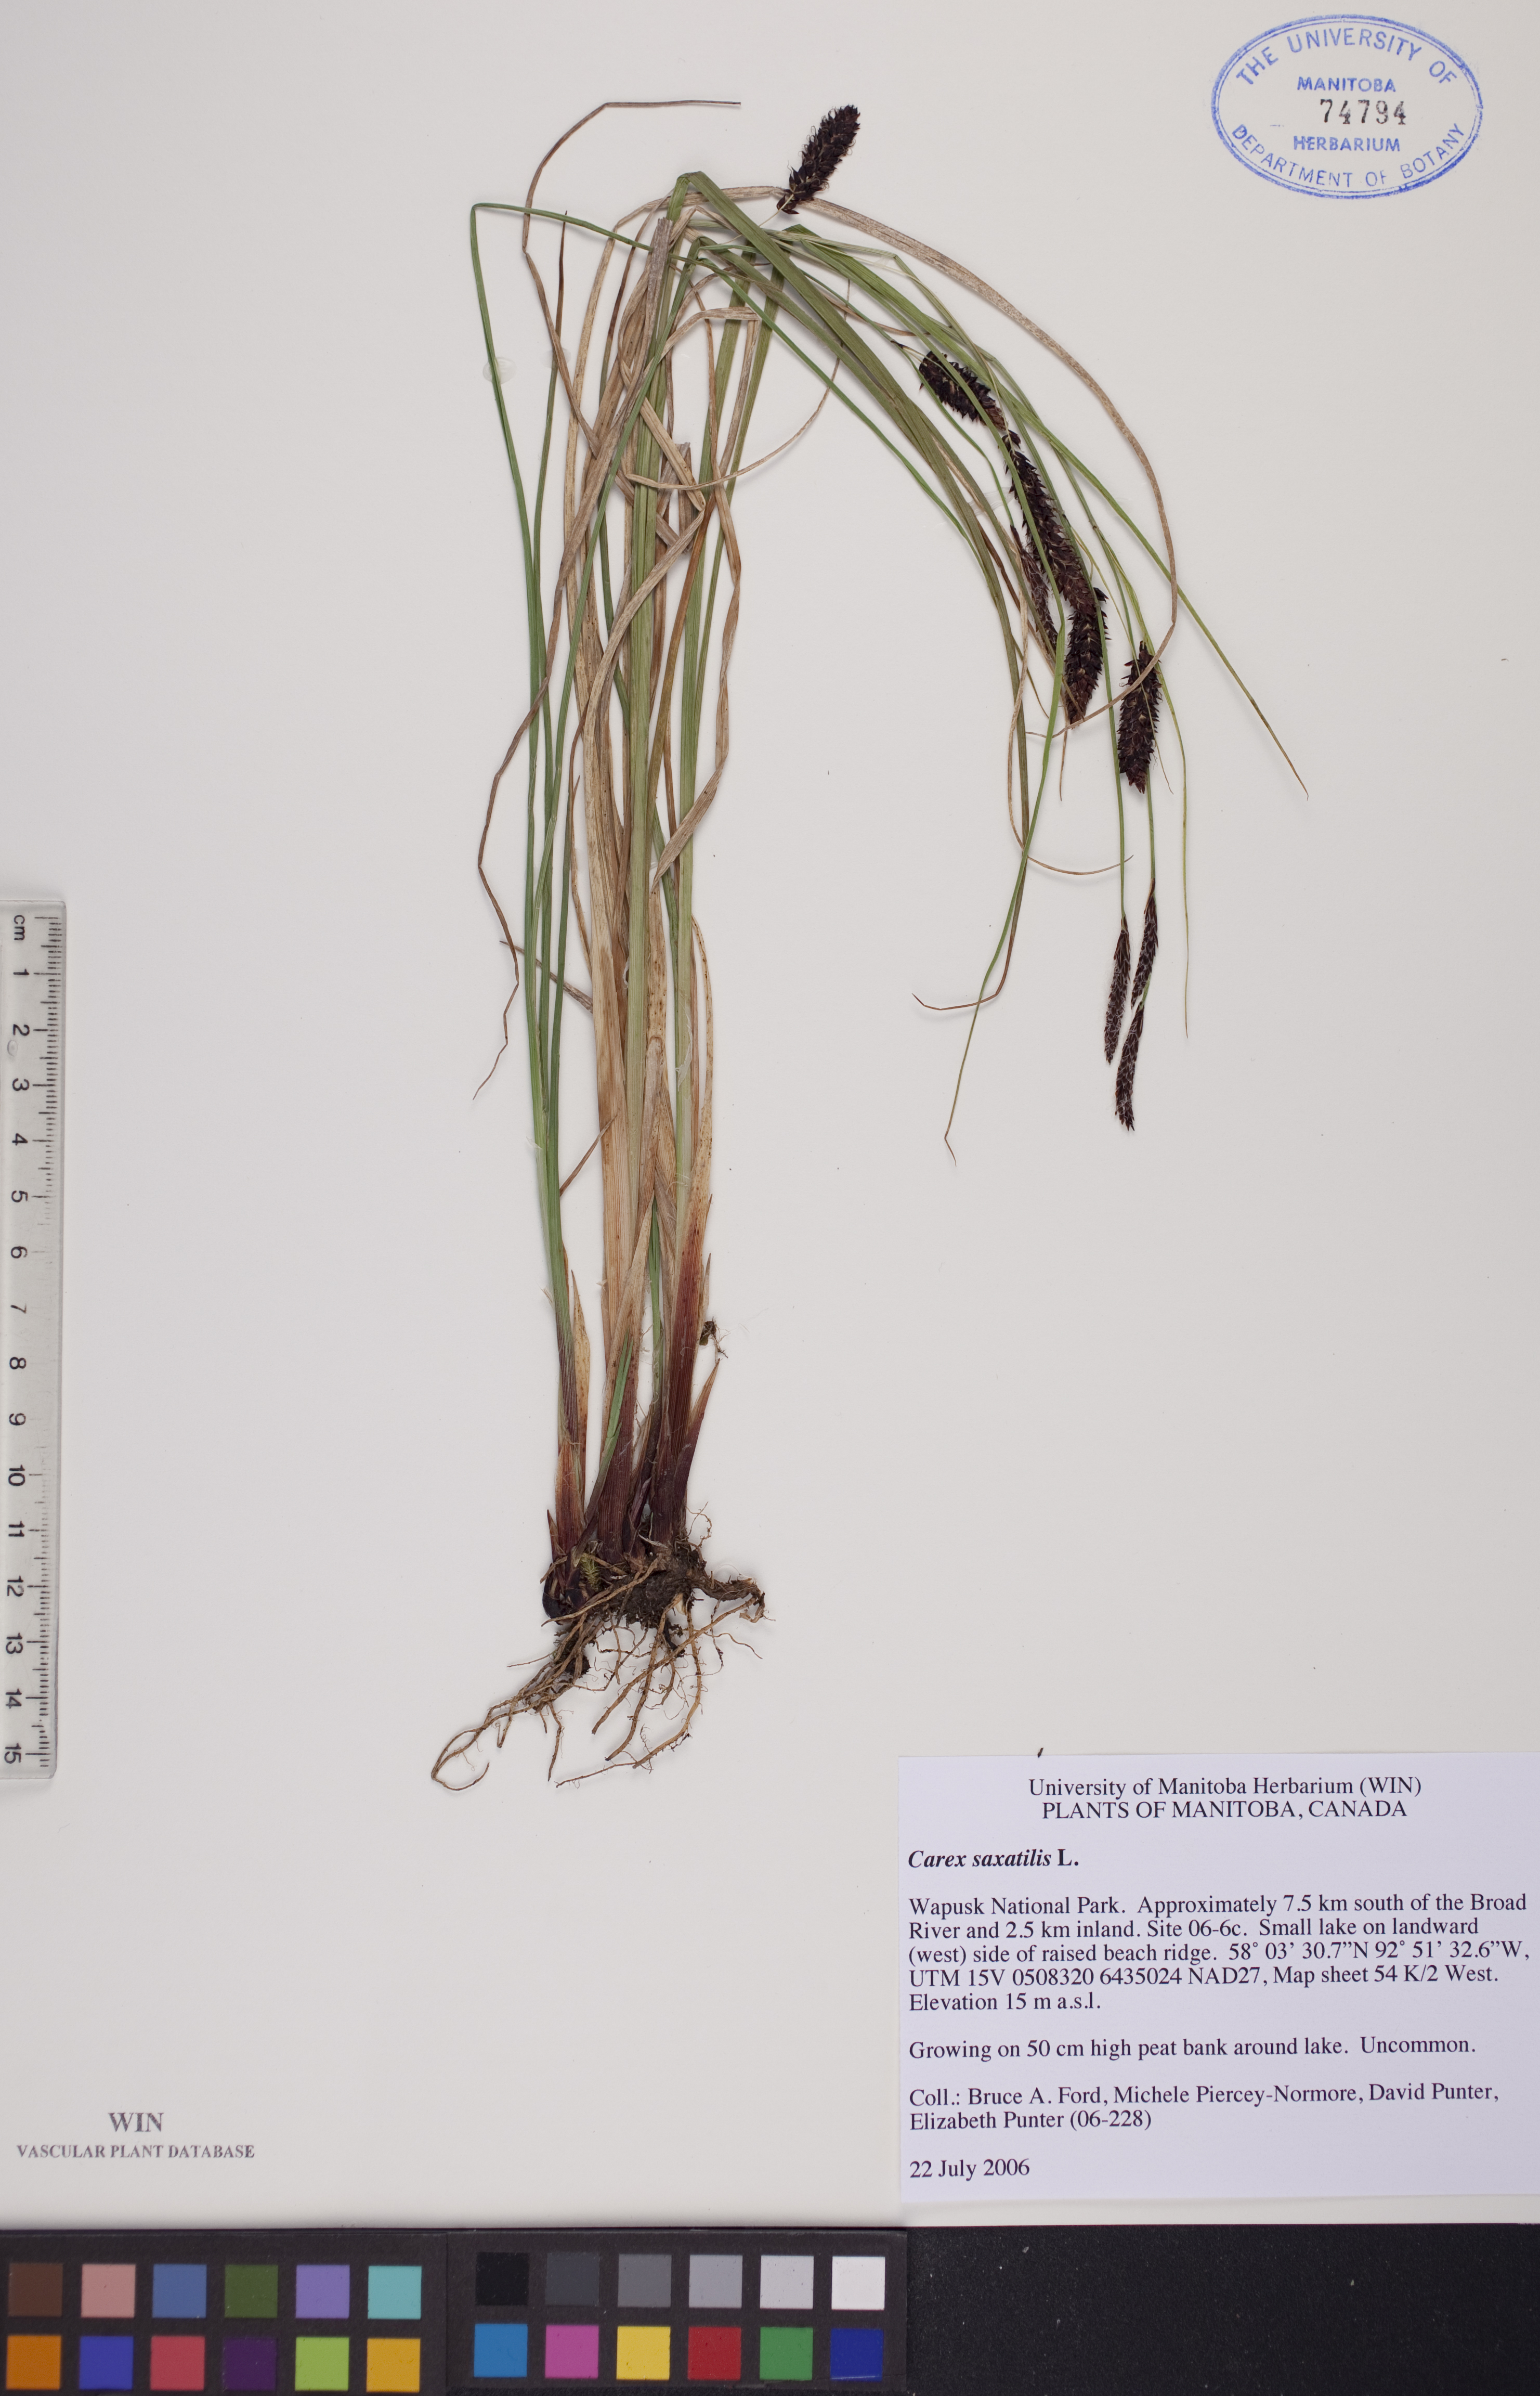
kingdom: Plantae
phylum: Tracheophyta
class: Liliopsida
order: Poales
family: Cyperaceae
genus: Carex
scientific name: Carex saxatilis
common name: Russet sedge
